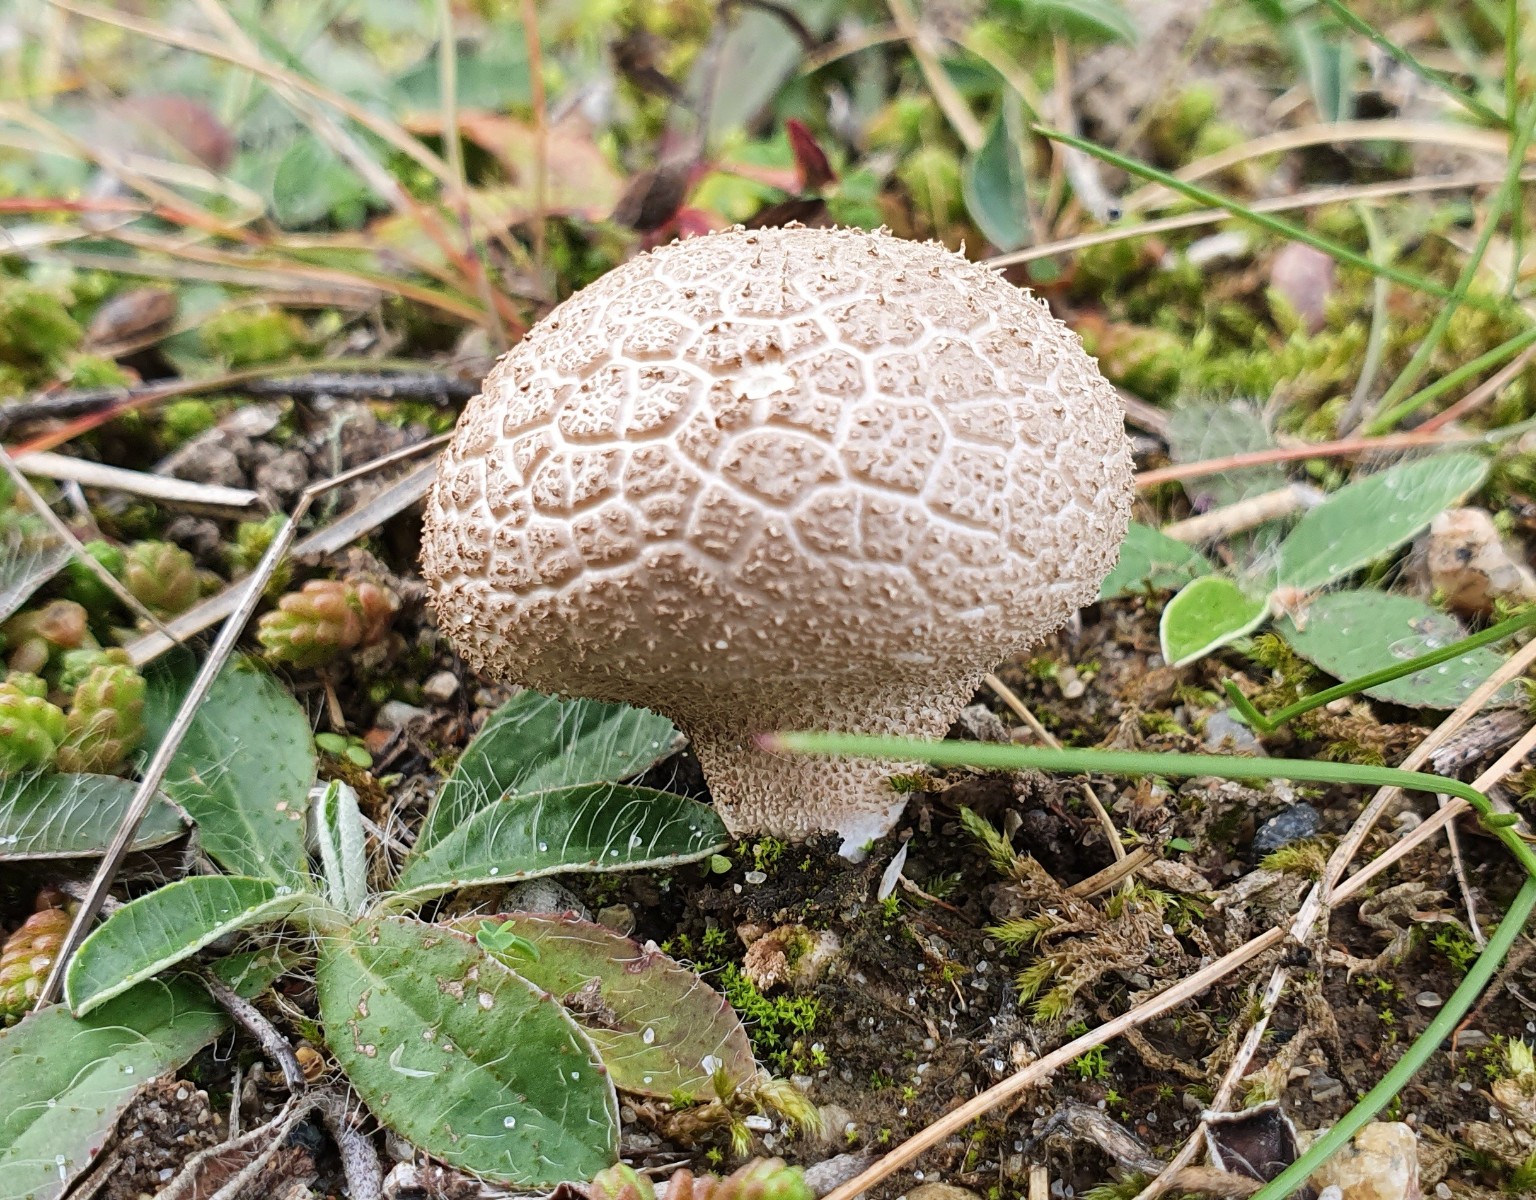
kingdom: Fungi
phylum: Basidiomycota
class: Agaricomycetes
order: Agaricales
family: Lycoperdaceae
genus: Lycoperdon
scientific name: Lycoperdon lividum
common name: mark-støvbold
